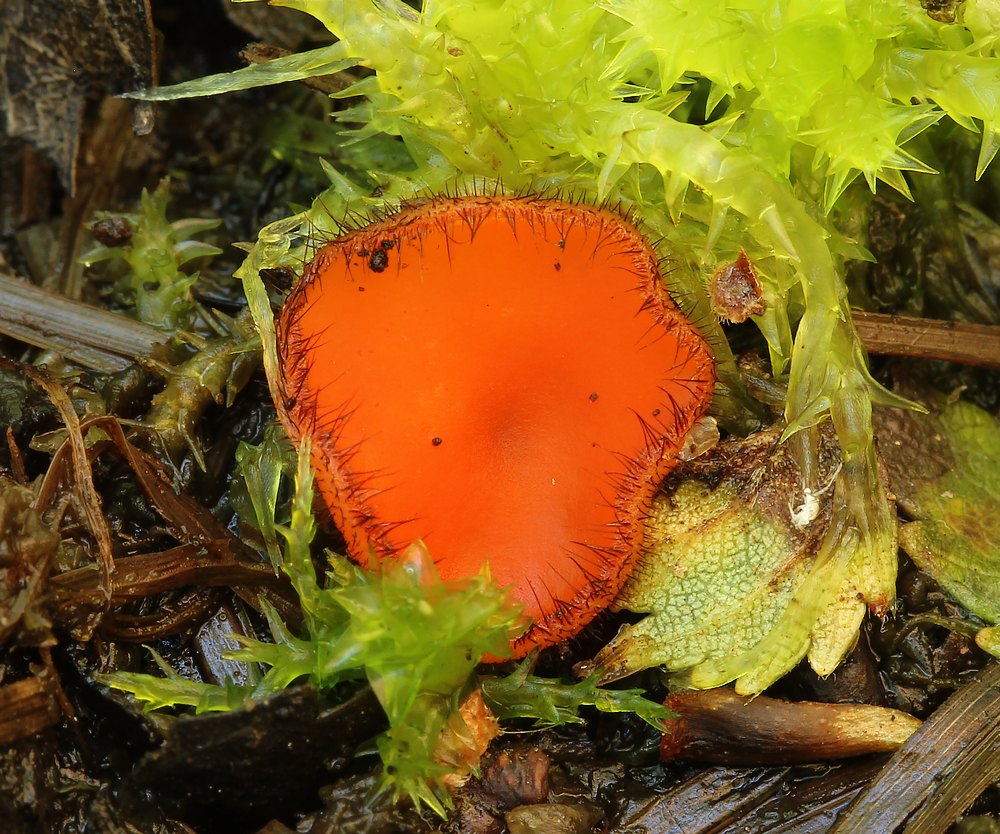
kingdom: Fungi
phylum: Ascomycota
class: Pezizomycetes
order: Pezizales
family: Pyronemataceae
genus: Scutellinia
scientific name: Scutellinia scutellata
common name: frynset skjoldbæger
